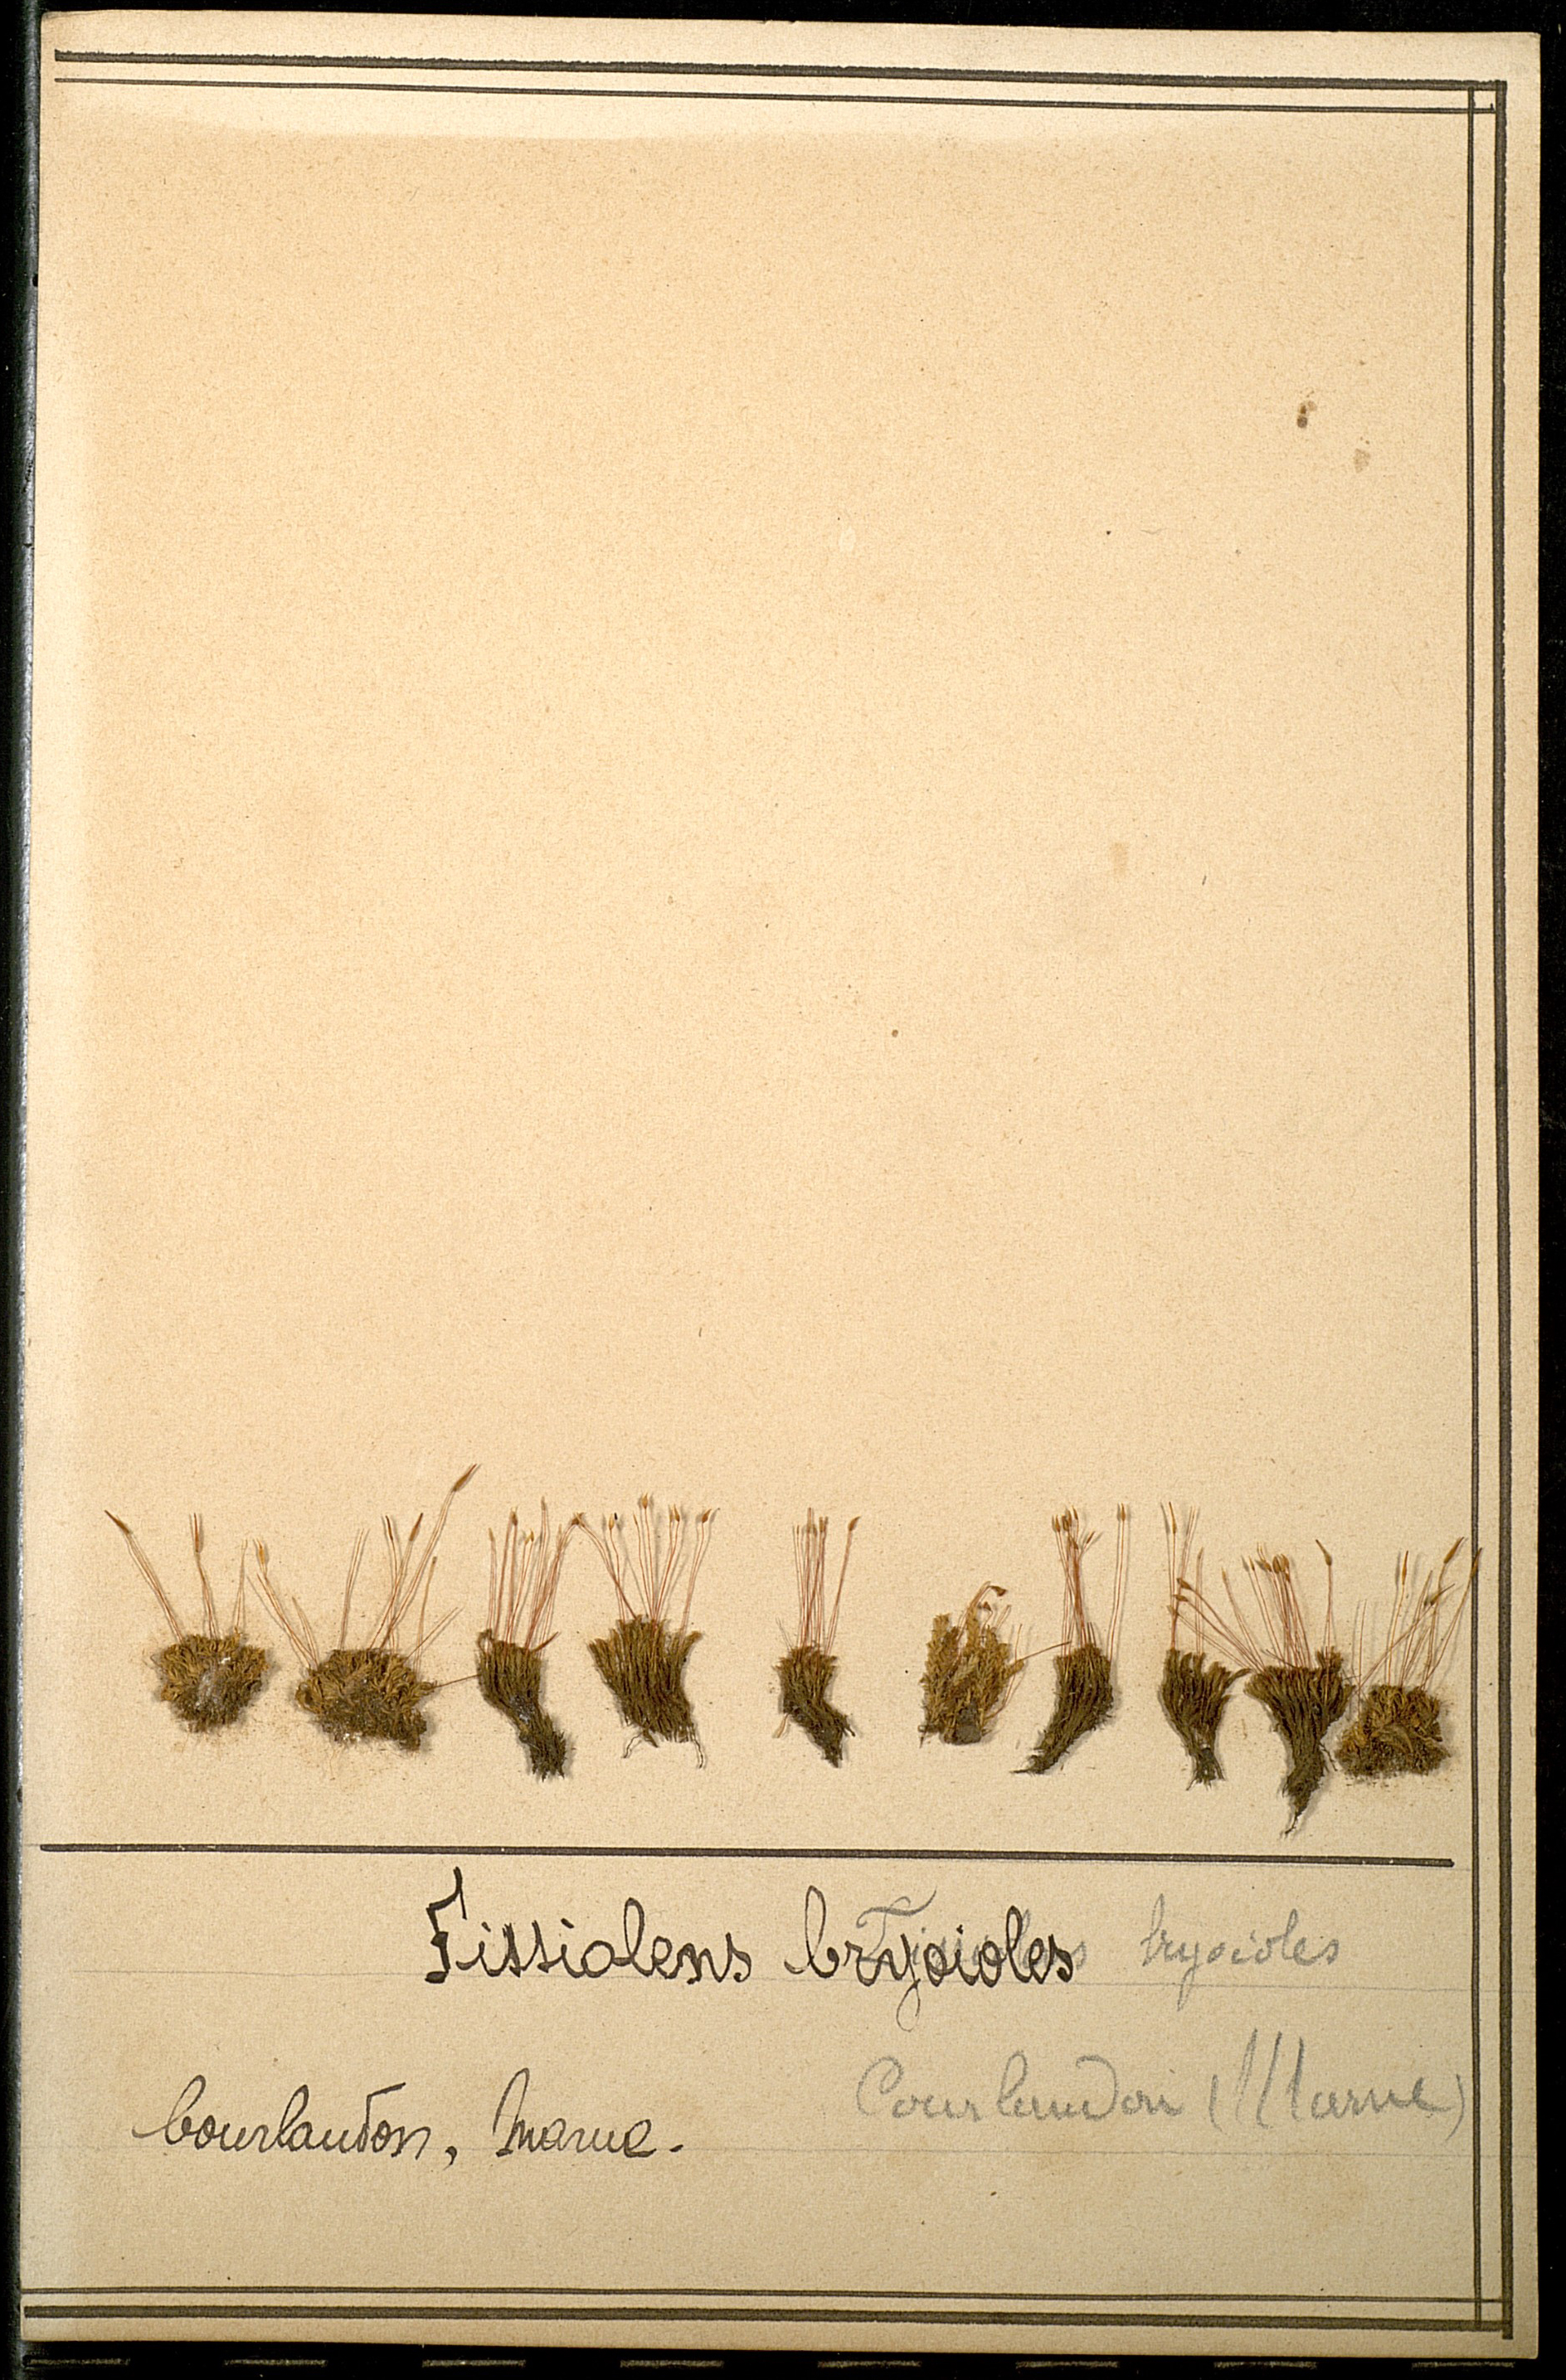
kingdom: Plantae
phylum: Bryophyta
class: Bryopsida
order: Dicranales
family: Fissidentaceae
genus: Fissidens
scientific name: Fissidens bryoides
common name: Lesser pocket moss
